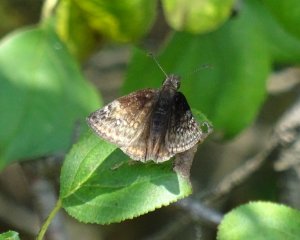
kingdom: Animalia
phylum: Arthropoda
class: Insecta
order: Lepidoptera
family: Hesperiidae
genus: Gesta
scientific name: Gesta
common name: Wild Indigo Duskywing
